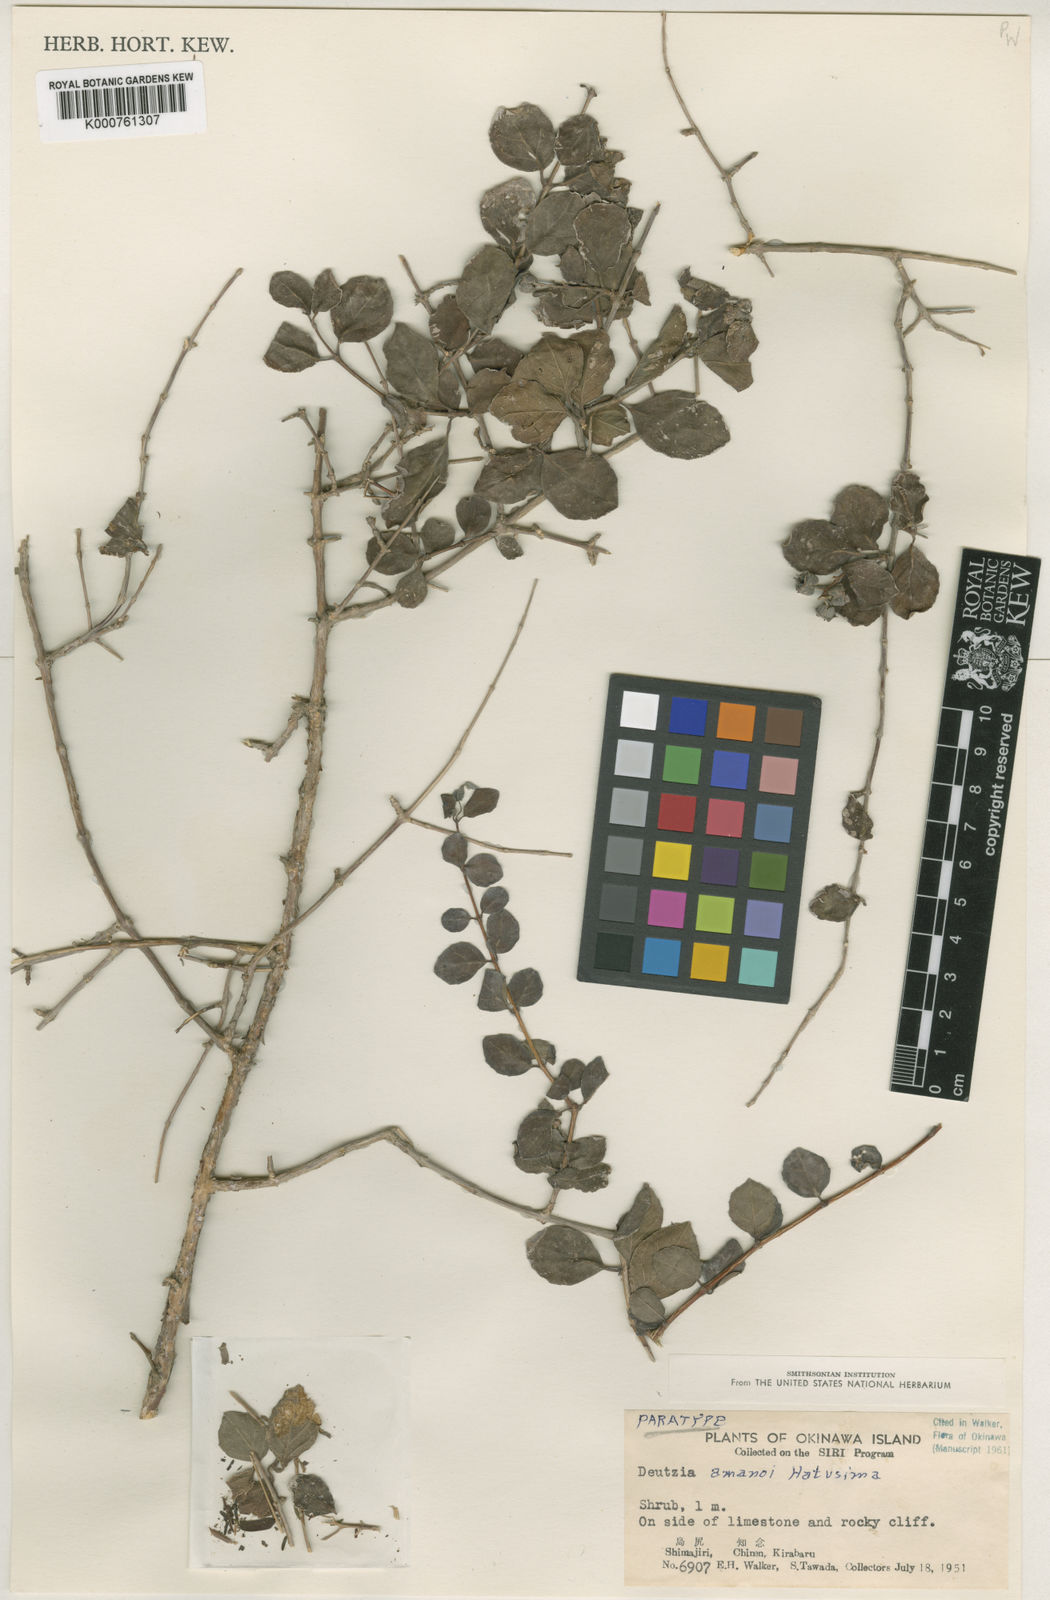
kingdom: Plantae
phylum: Tracheophyta
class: Magnoliopsida
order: Cornales
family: Hydrangeaceae
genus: Deutzia
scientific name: Deutzia naseana
